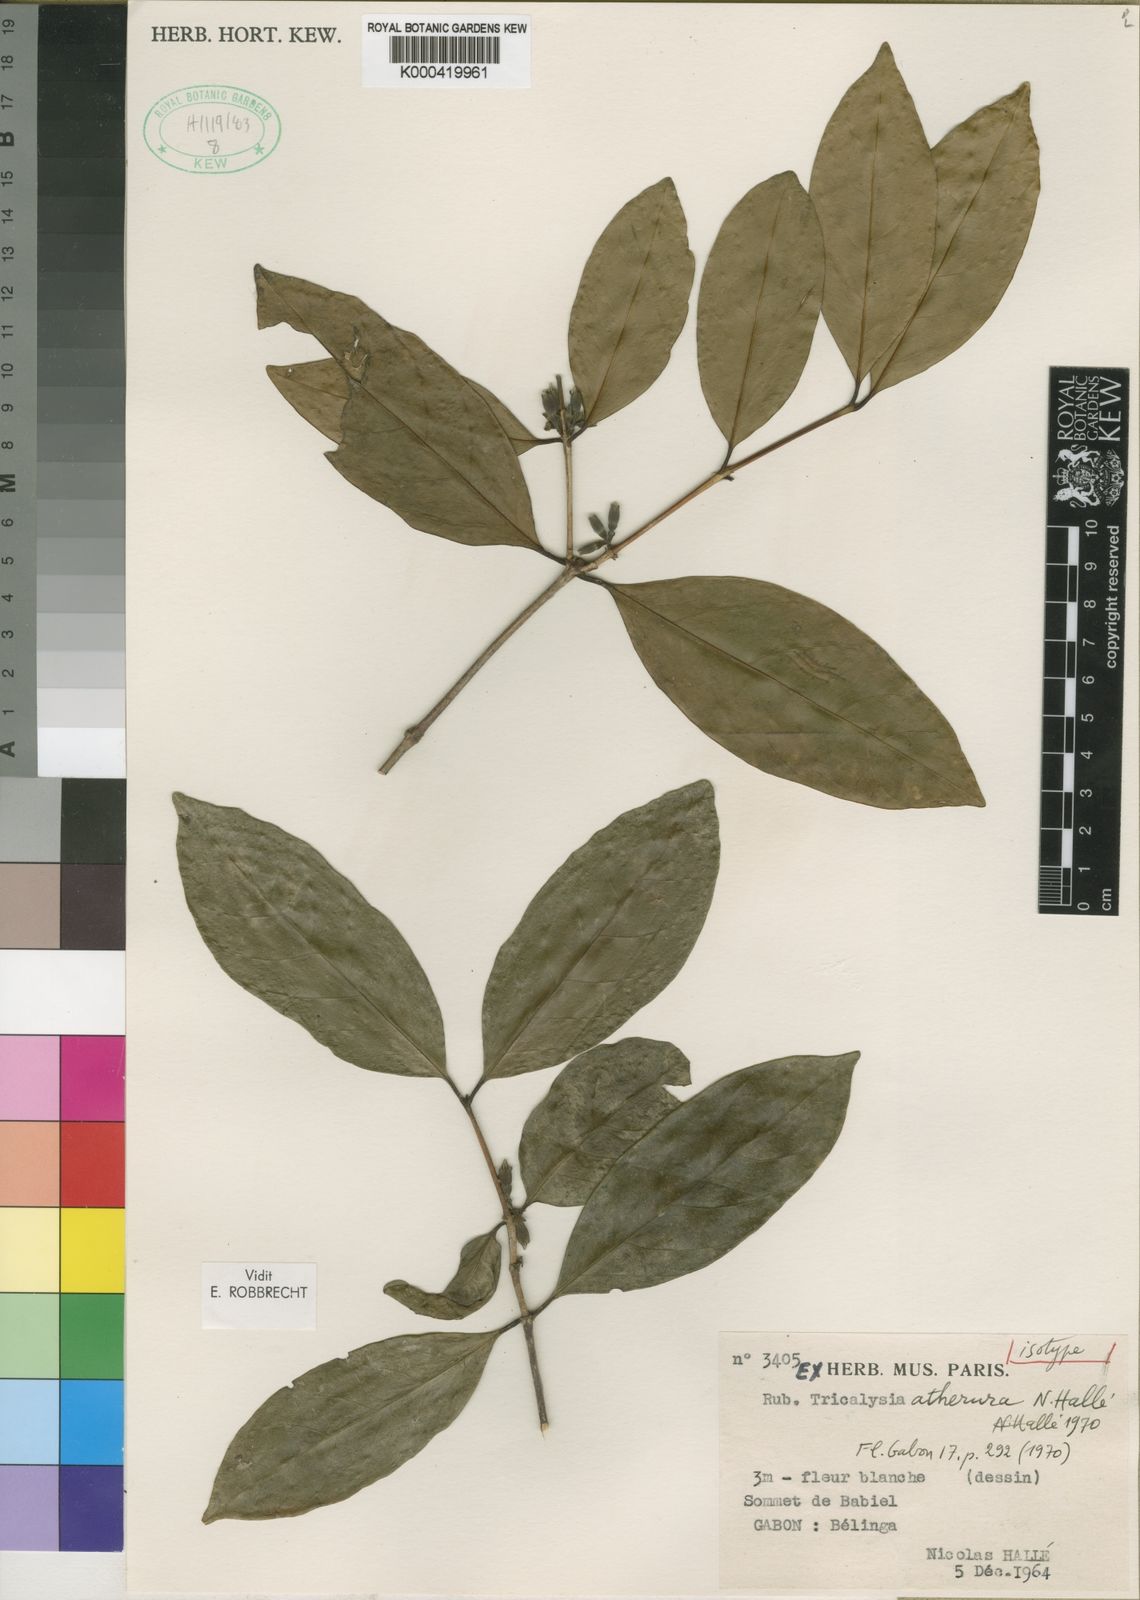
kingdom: Plantae
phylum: Tracheophyta
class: Magnoliopsida
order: Gentianales
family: Rubiaceae
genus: Tricalysia
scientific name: Tricalysia
